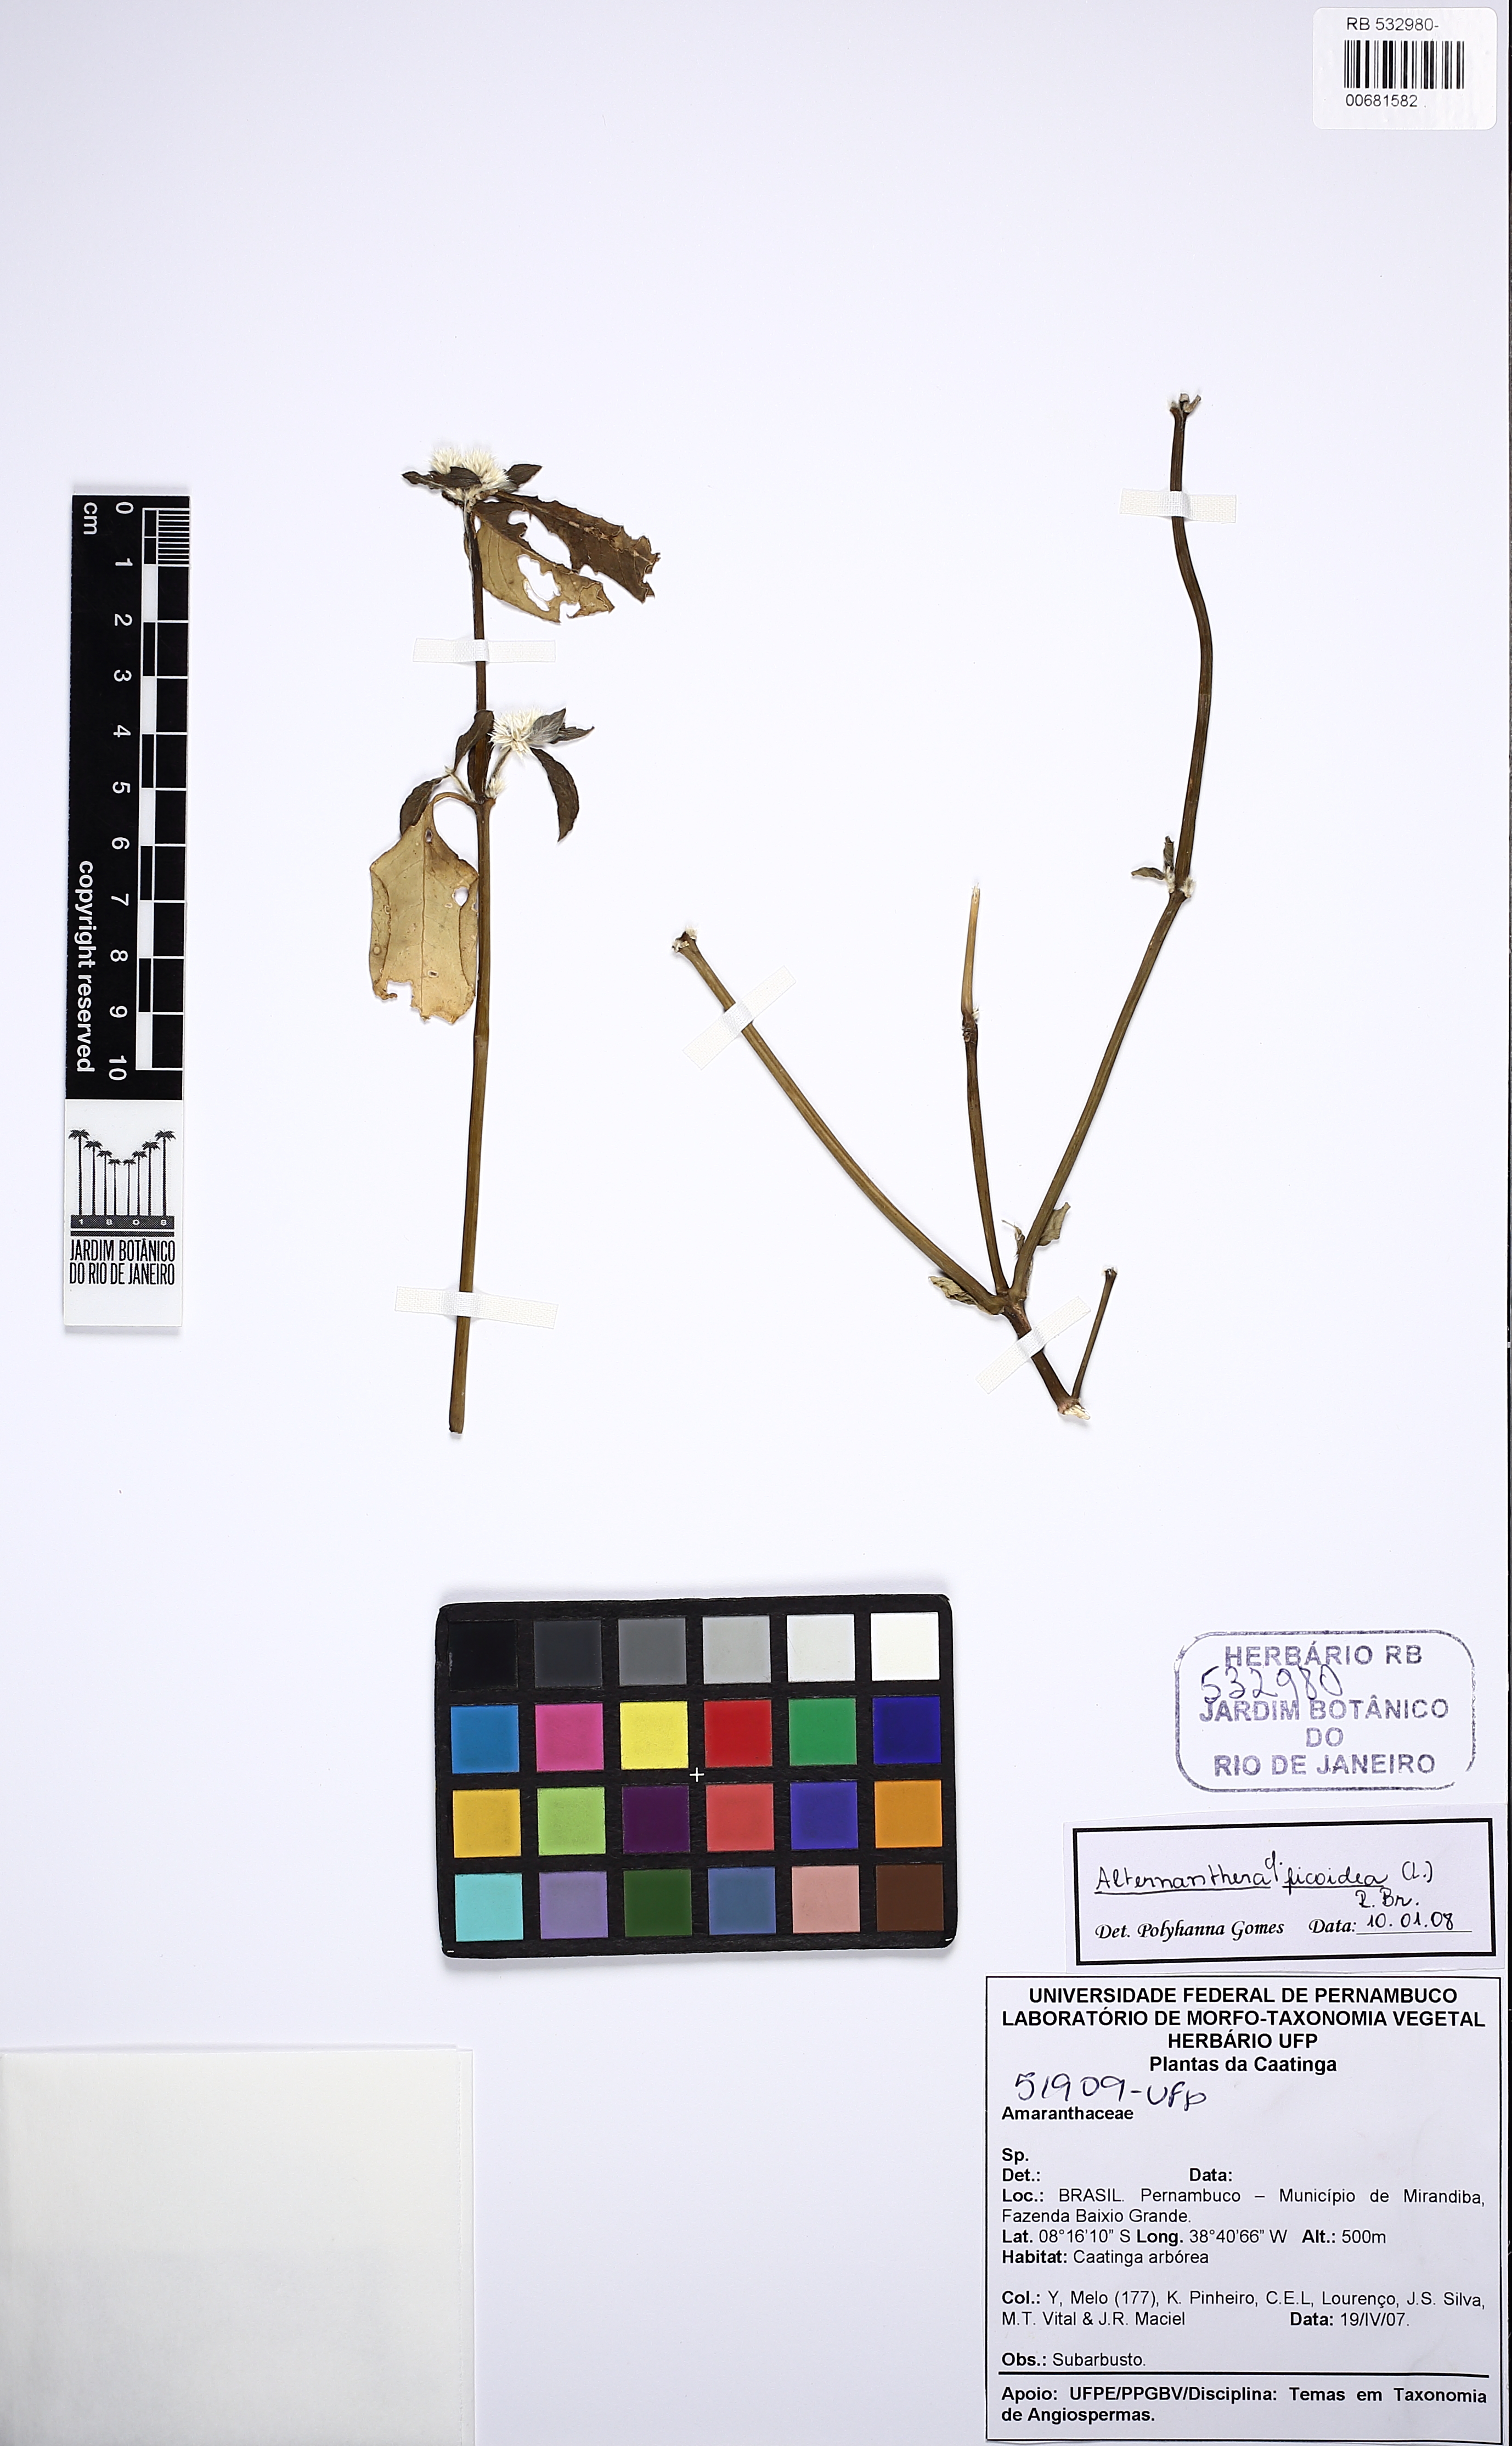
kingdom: Plantae
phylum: Tracheophyta
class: Magnoliopsida
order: Caryophyllales
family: Amaranthaceae
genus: Alternanthera
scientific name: Alternanthera ficoidea
